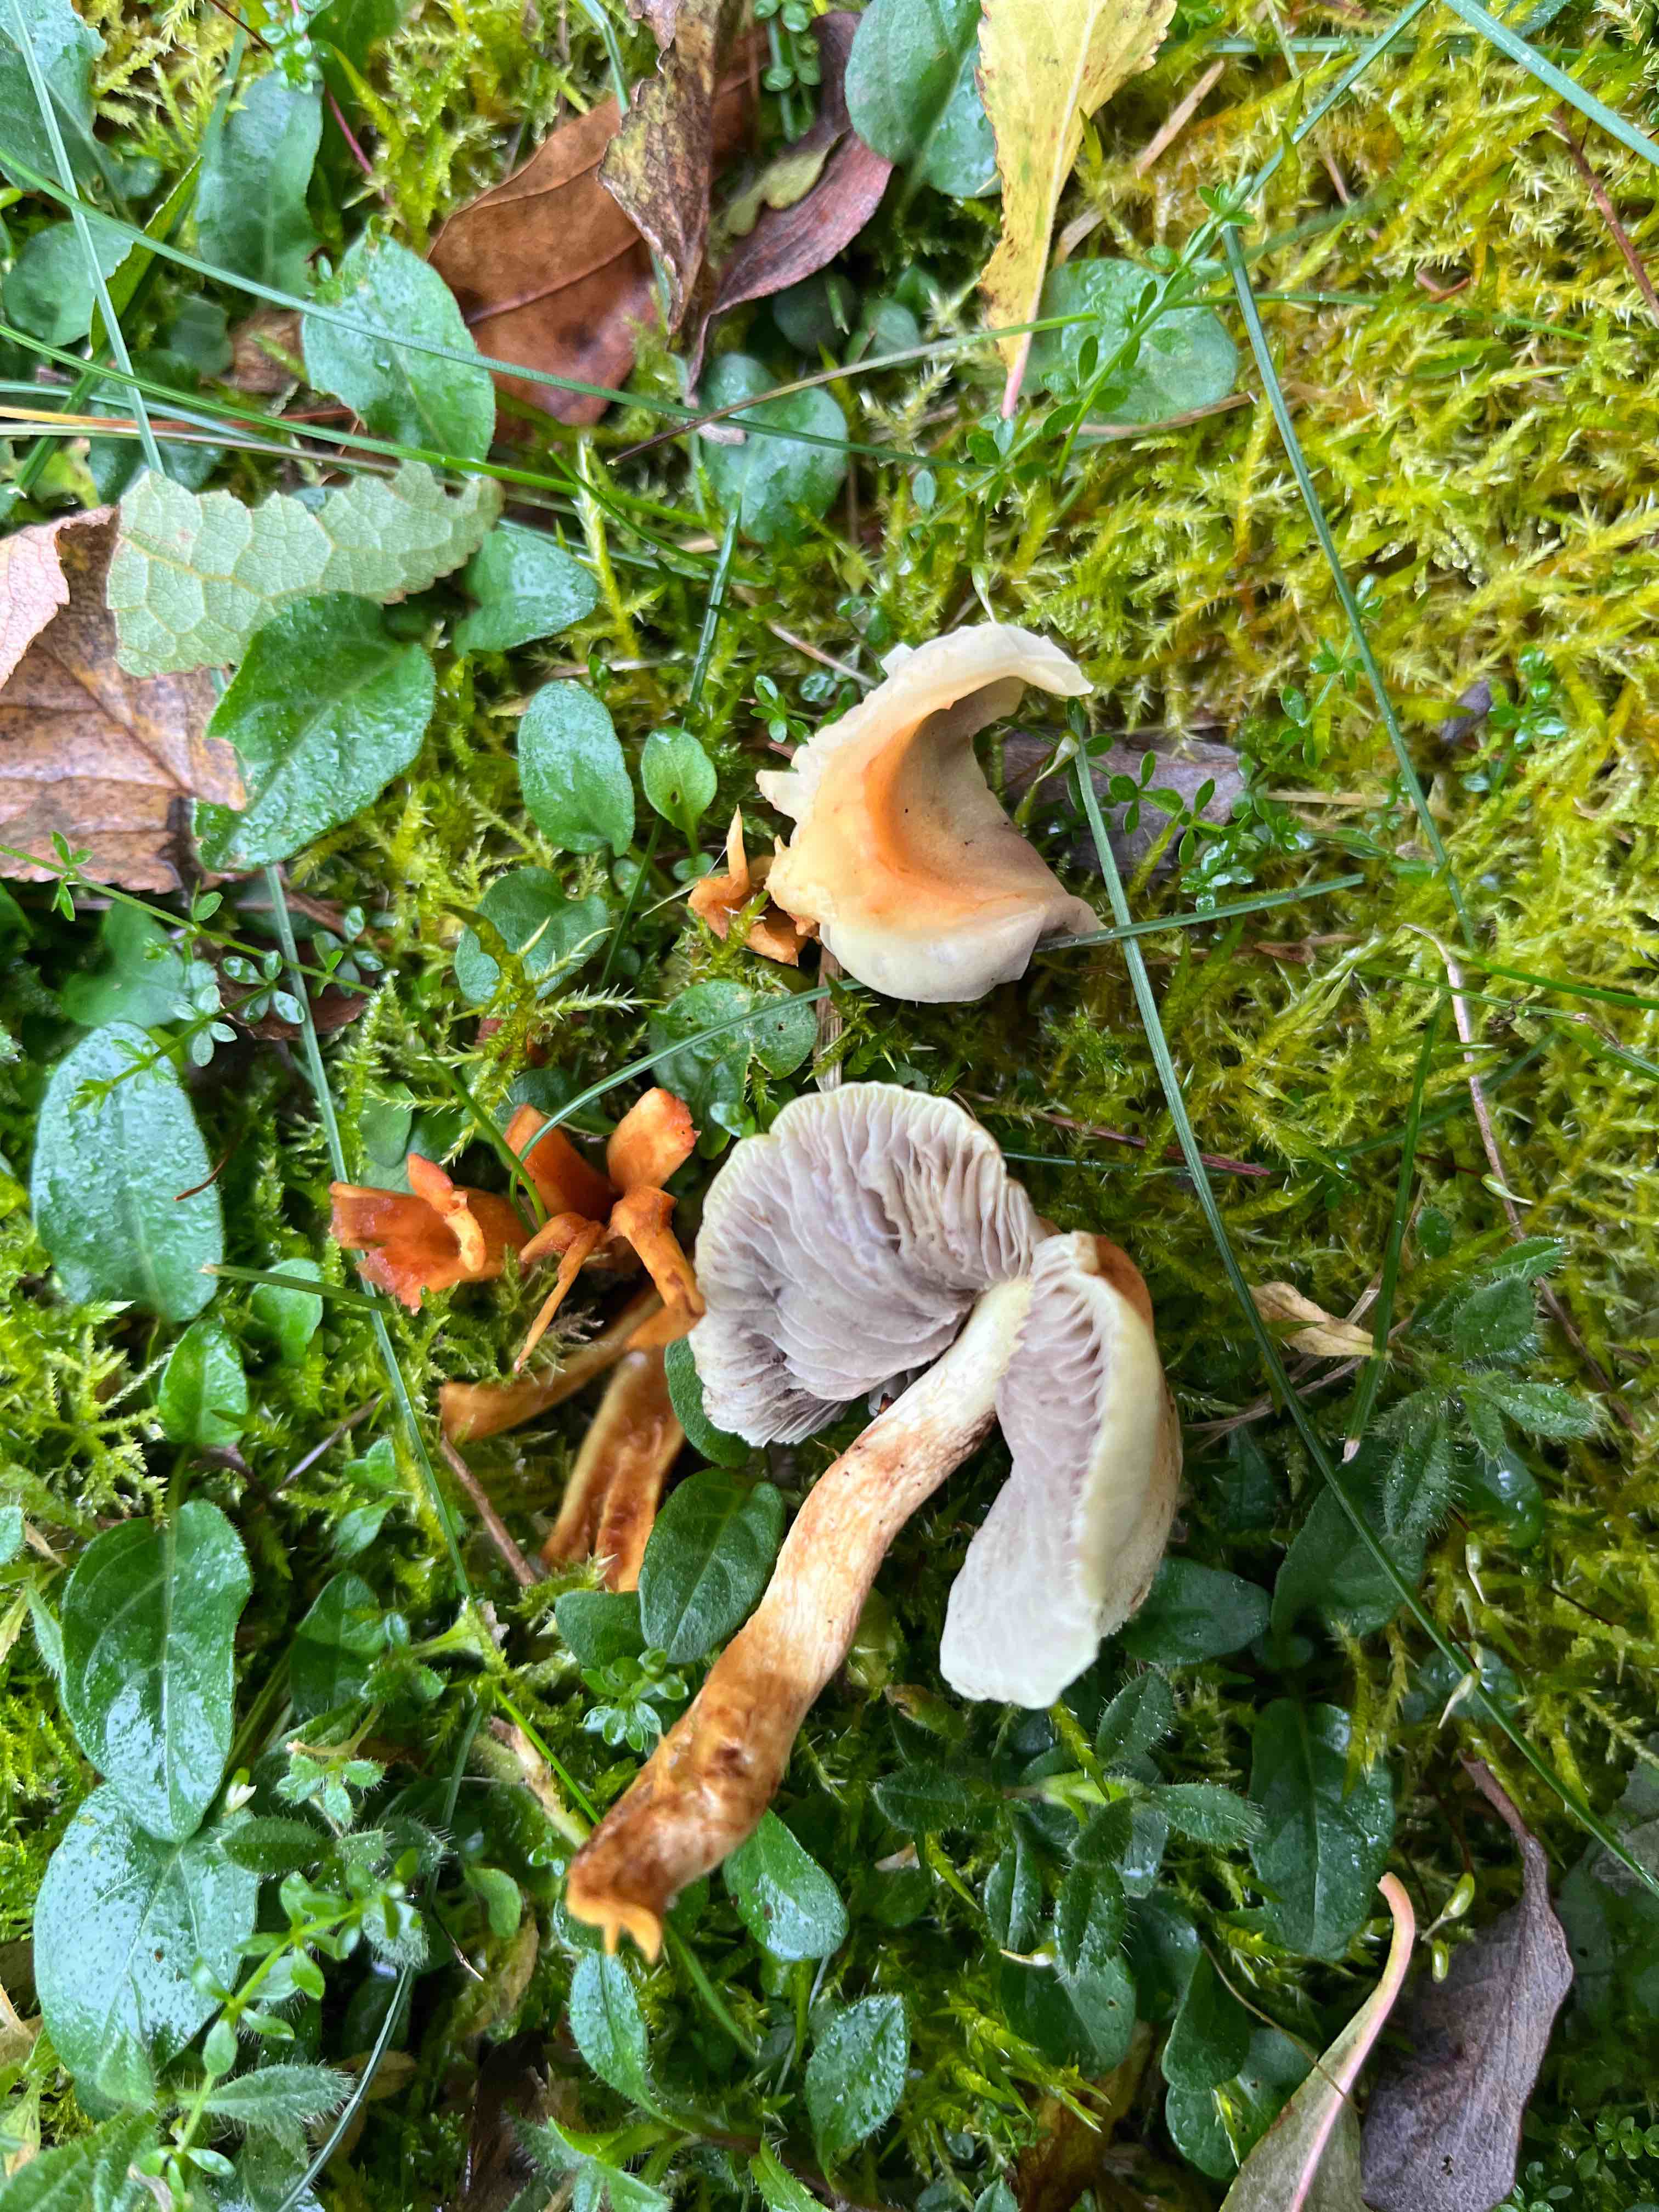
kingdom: Fungi
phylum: Basidiomycota
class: Agaricomycetes
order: Agaricales
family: Strophariaceae
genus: Hypholoma
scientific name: Hypholoma capnoides
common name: gran-svovlhat
